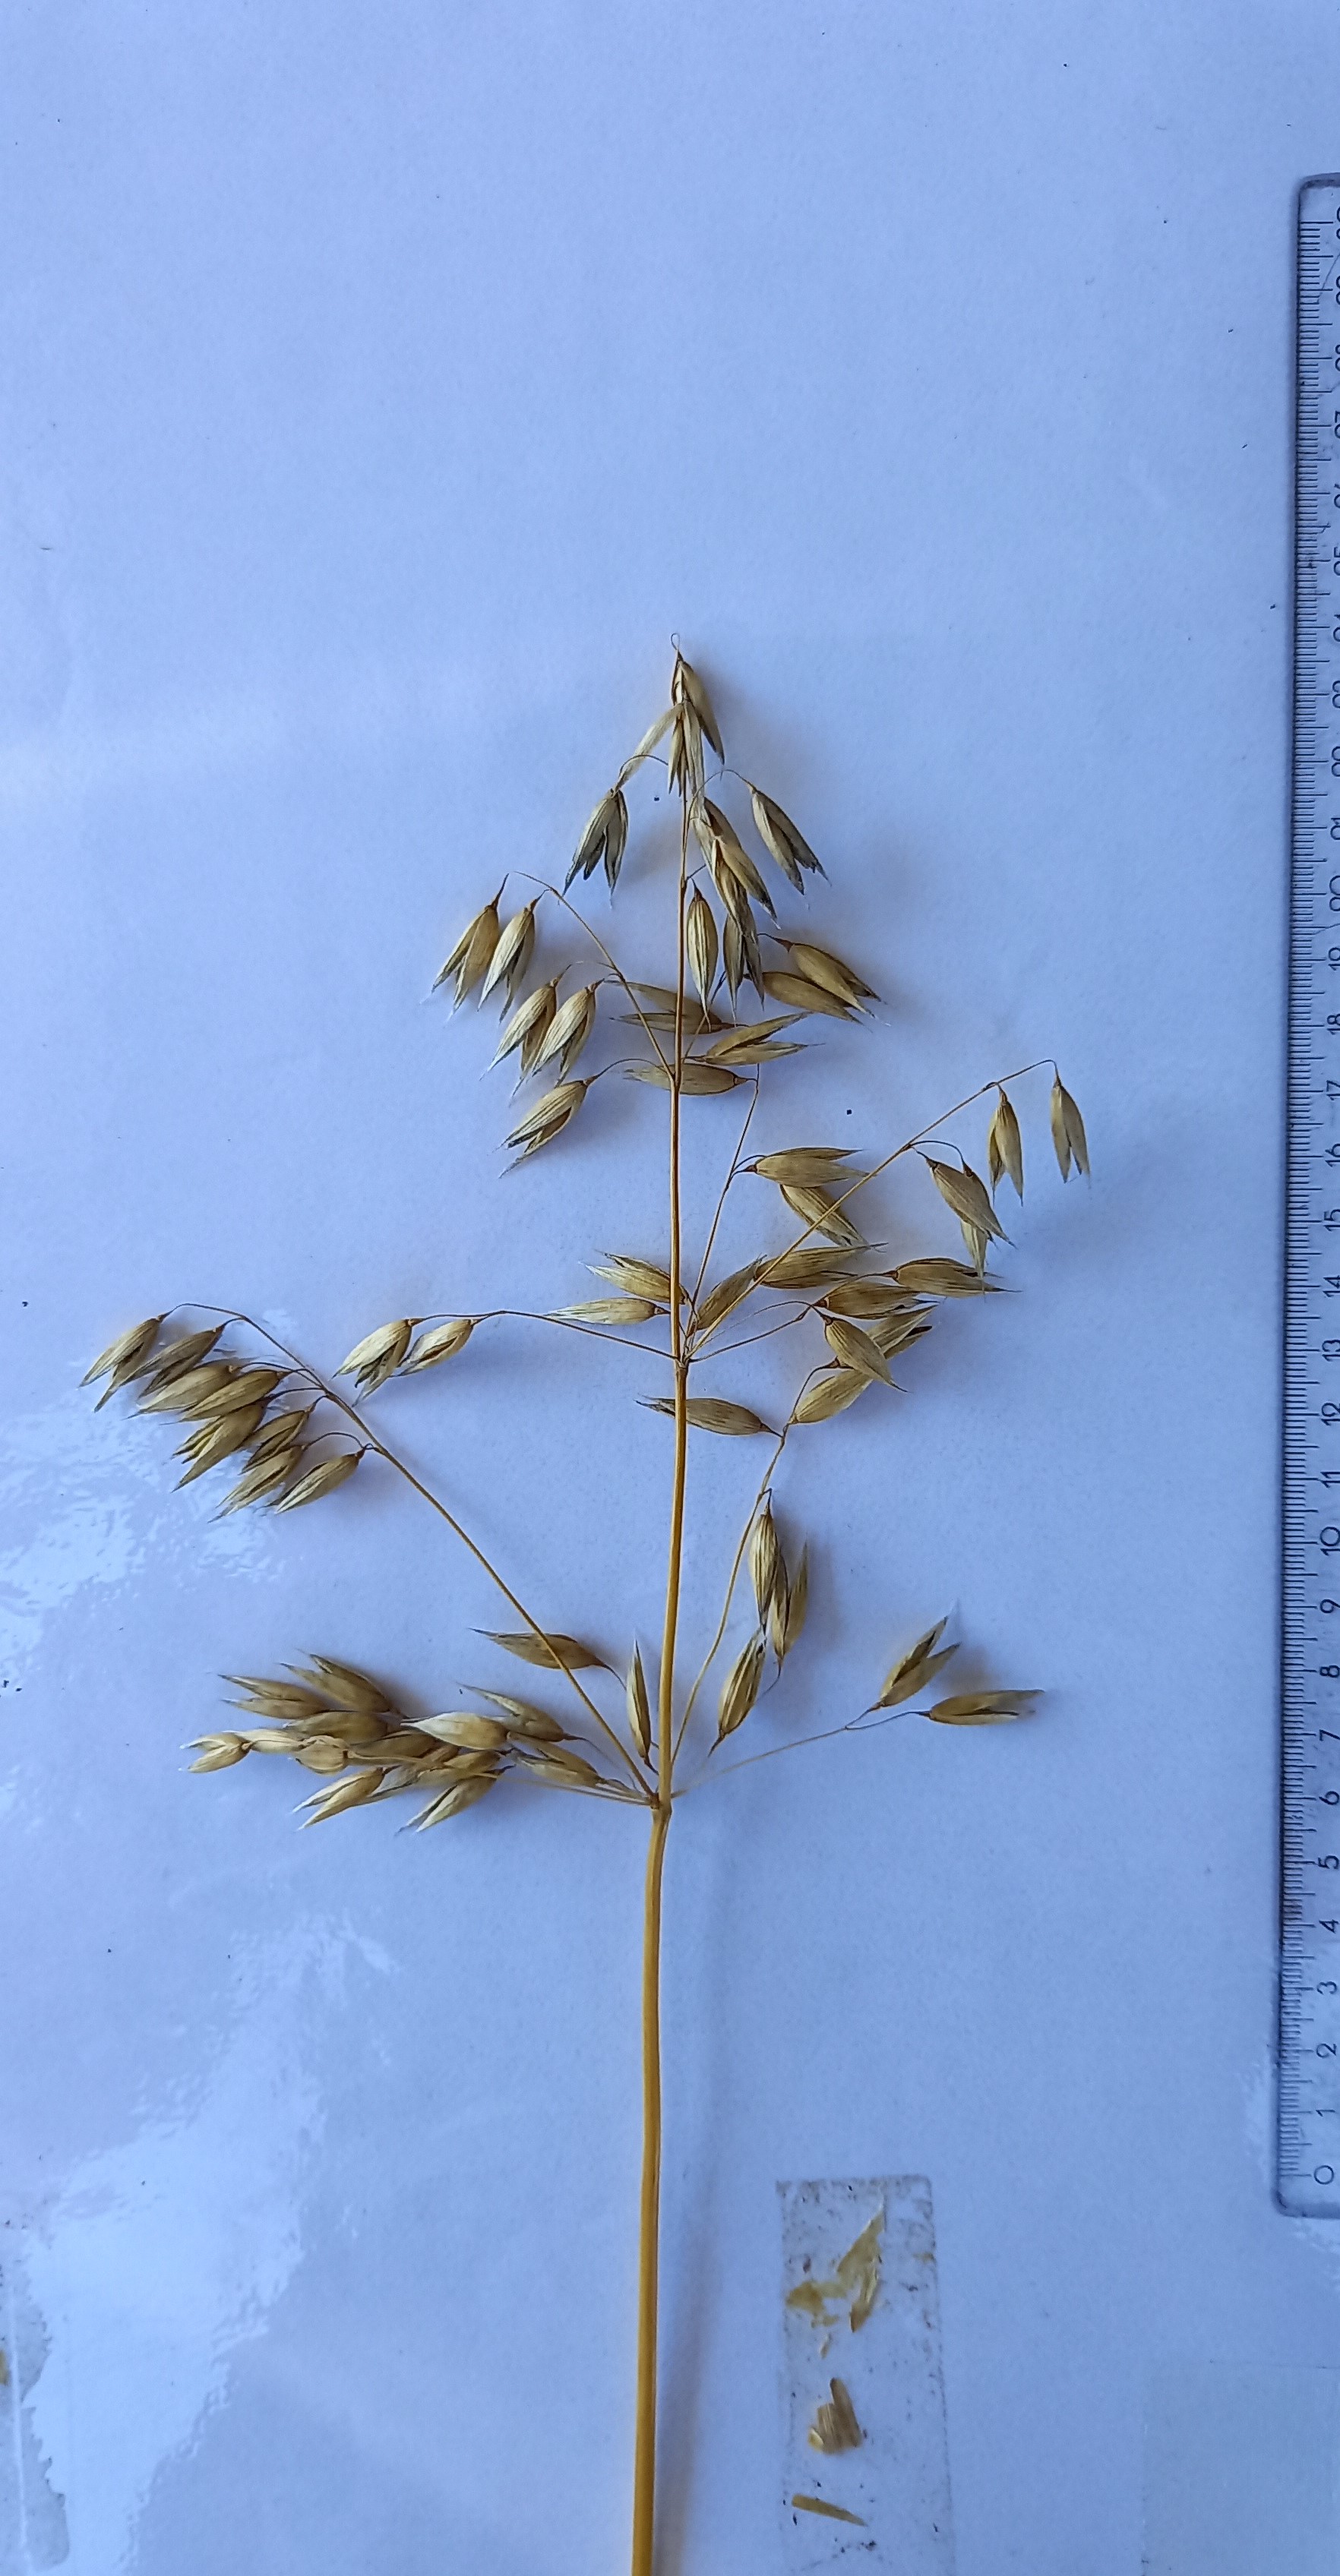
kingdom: Plantae
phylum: Tracheophyta
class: Liliopsida
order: Poales
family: Poaceae
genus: Avena
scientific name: Avena sativa
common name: Oat
